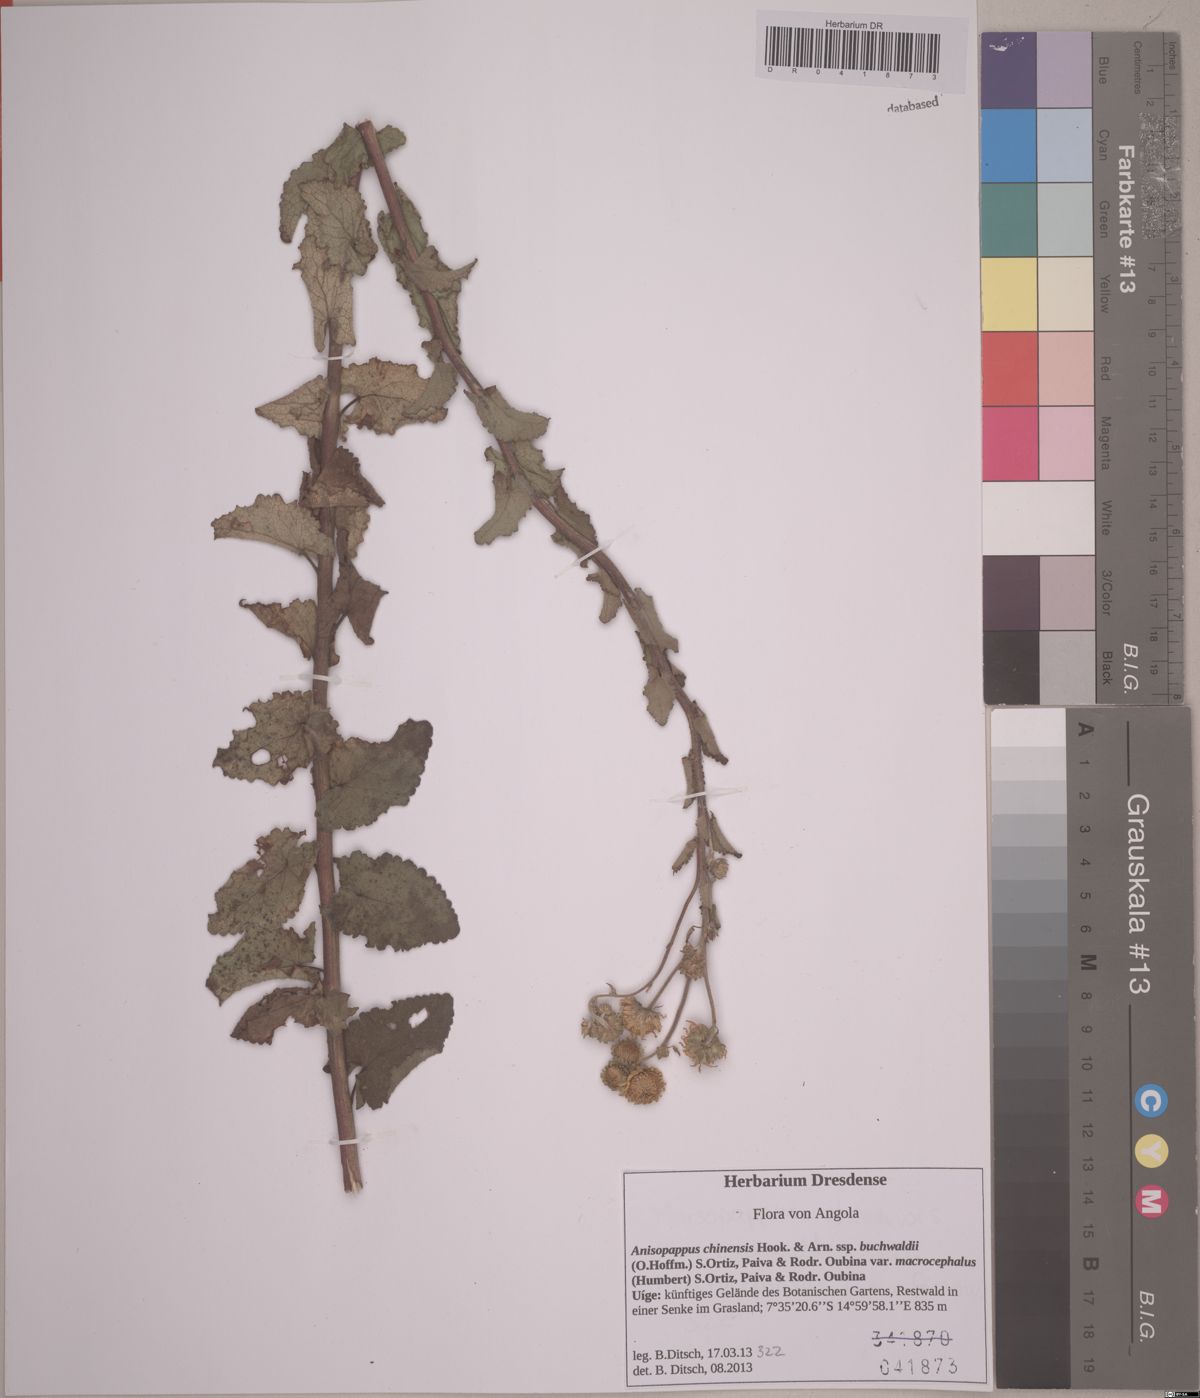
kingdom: Plantae
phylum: Tracheophyta
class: Magnoliopsida
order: Asterales
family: Asteraceae
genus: Anisopappus
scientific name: Anisopappus buchwaldii
